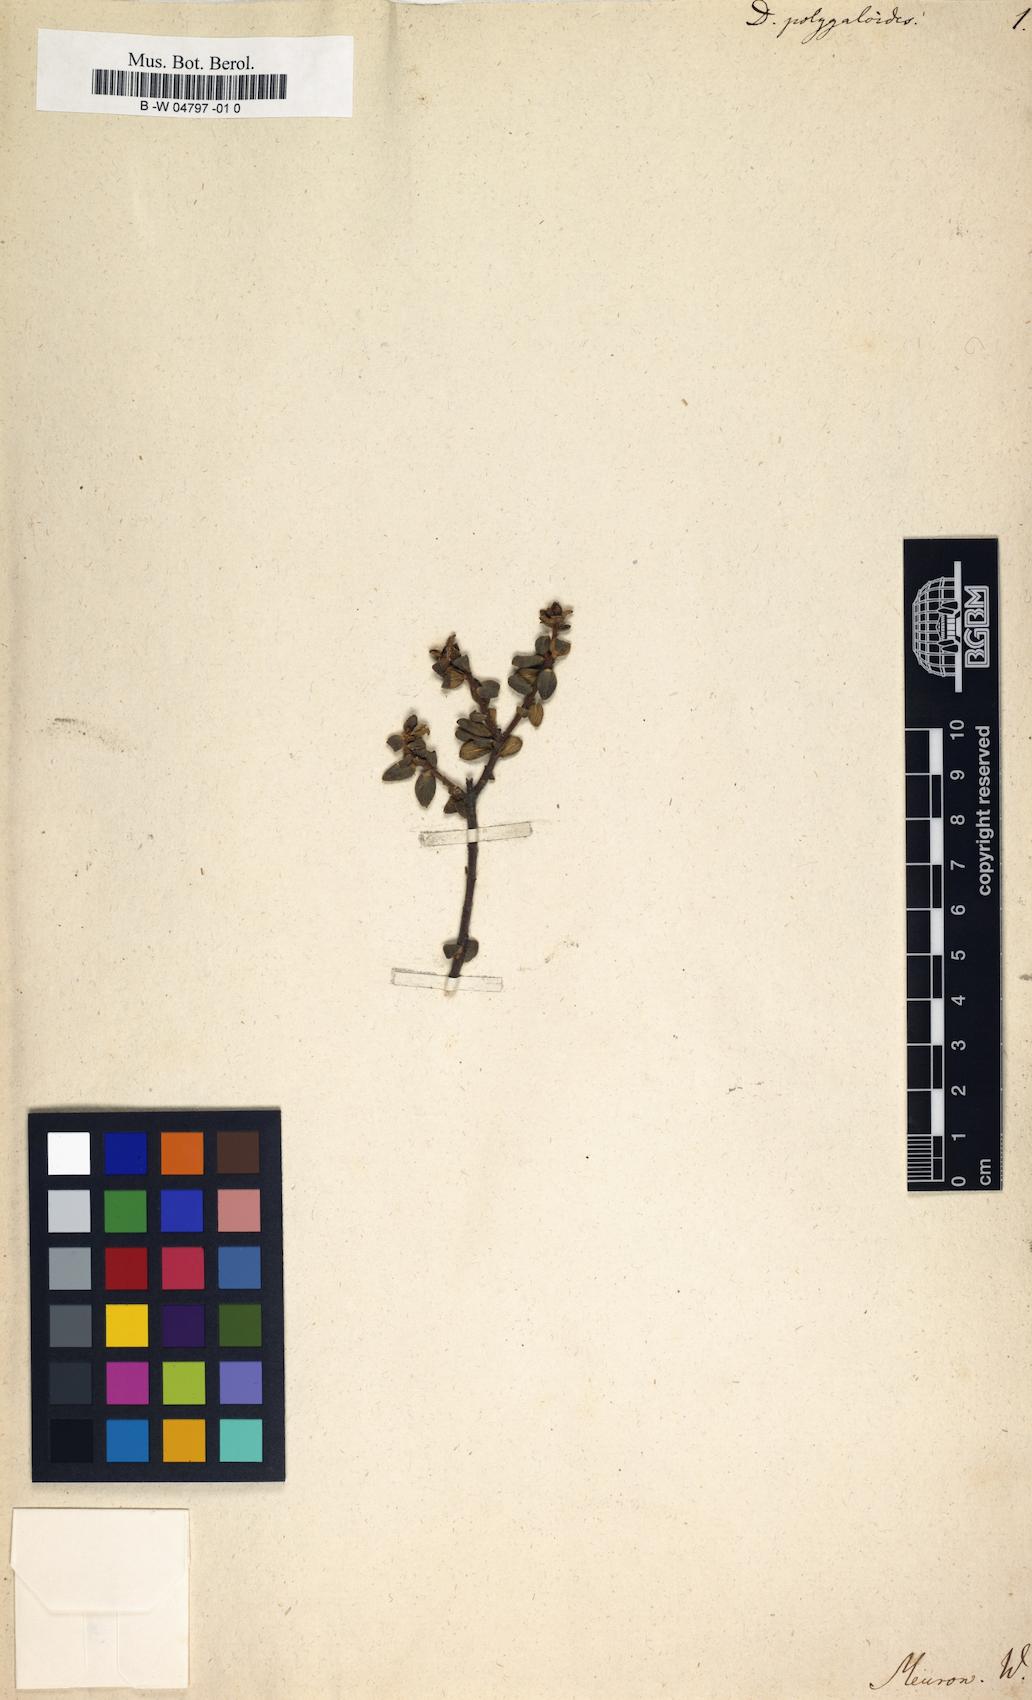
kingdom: Plantae
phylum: Tracheophyta
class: Magnoliopsida
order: Sapindales
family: Rutaceae
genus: Diosma
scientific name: Diosma
